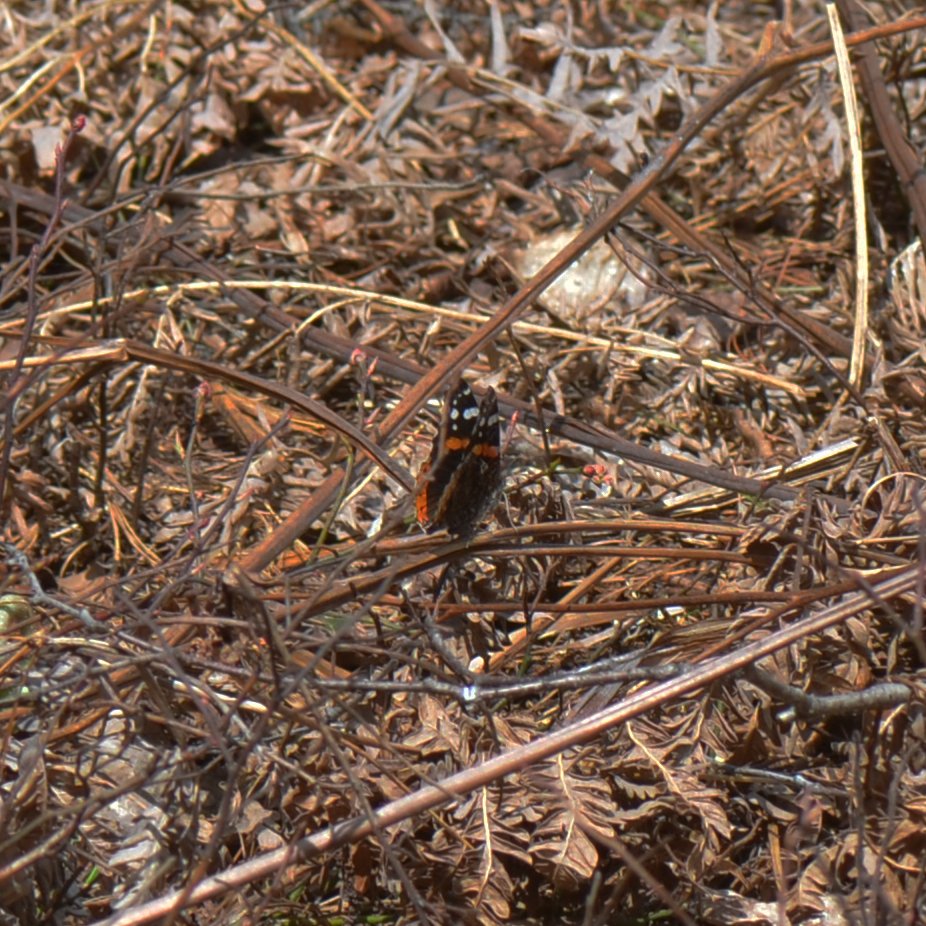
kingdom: Animalia
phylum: Arthropoda
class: Insecta
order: Lepidoptera
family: Nymphalidae
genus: Vanessa
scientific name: Vanessa atalanta
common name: Red Admiral
